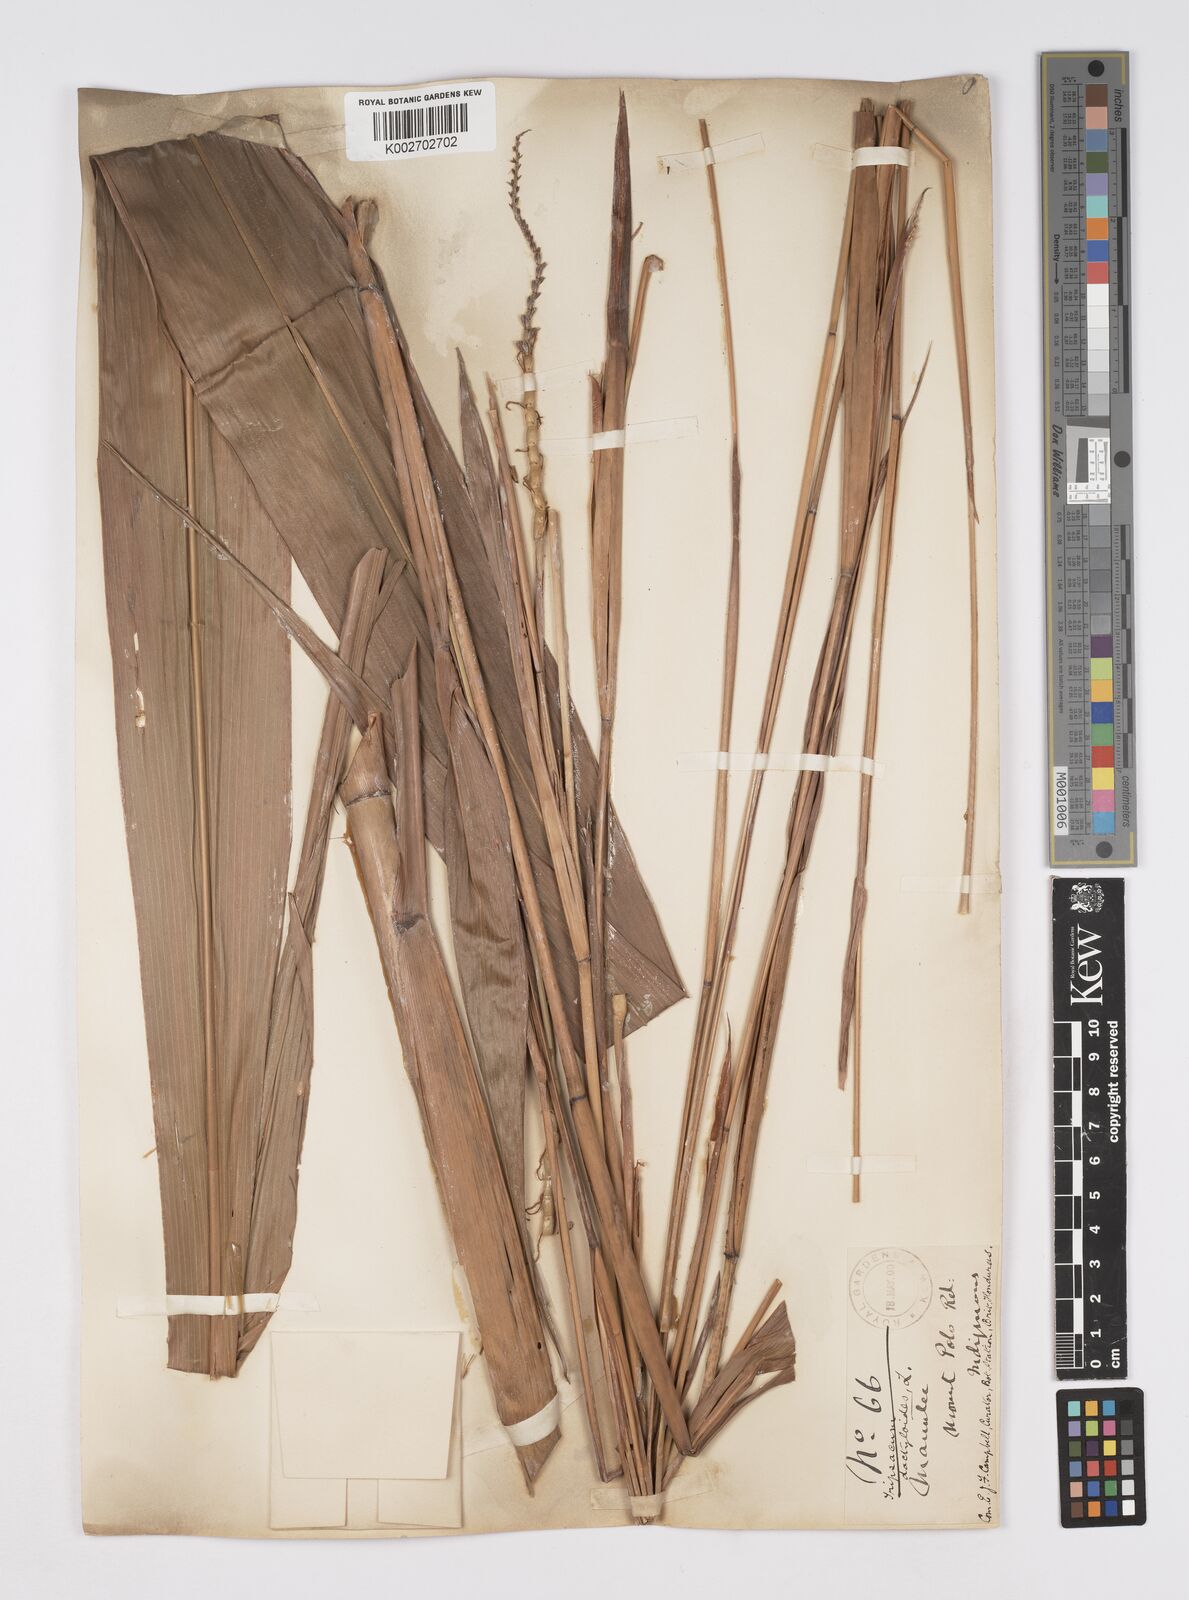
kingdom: Plantae
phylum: Tracheophyta
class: Liliopsida
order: Poales
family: Poaceae
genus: Tripsacum
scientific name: Tripsacum latifolium
